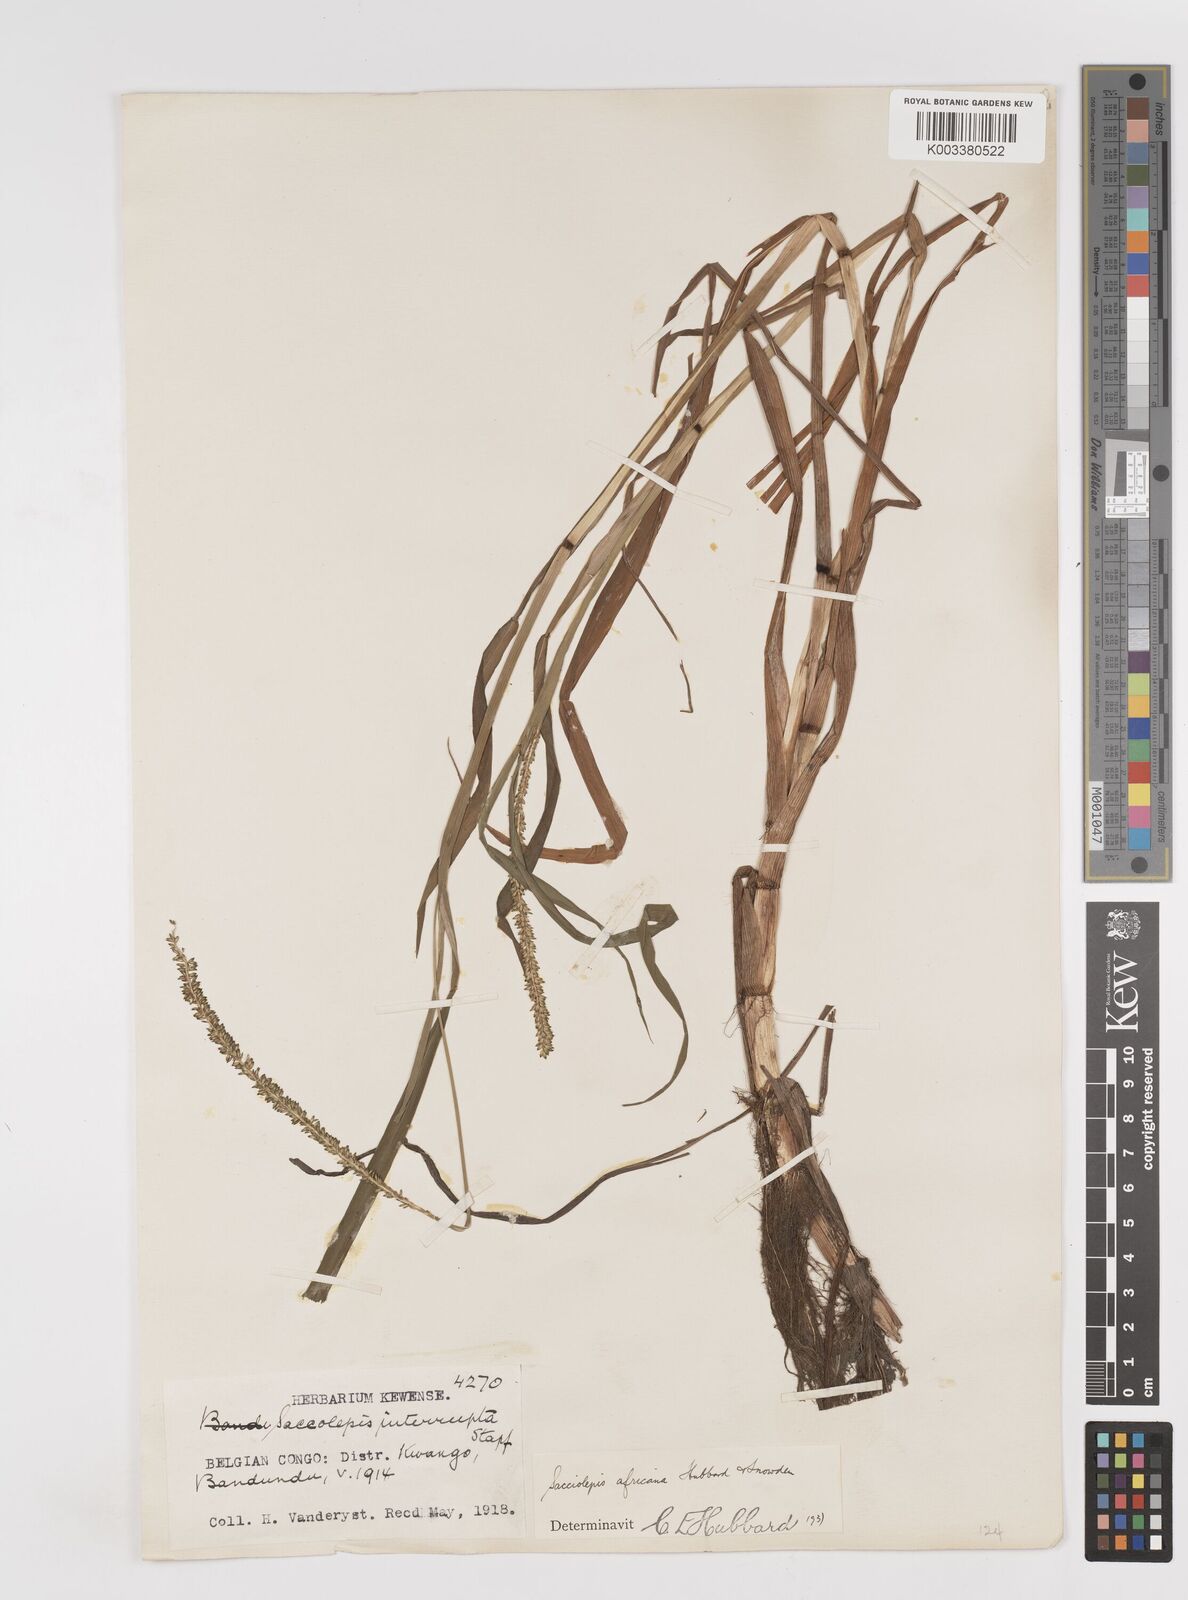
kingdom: Plantae
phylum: Tracheophyta
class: Liliopsida
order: Poales
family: Poaceae
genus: Sacciolepis
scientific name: Sacciolepis africana
